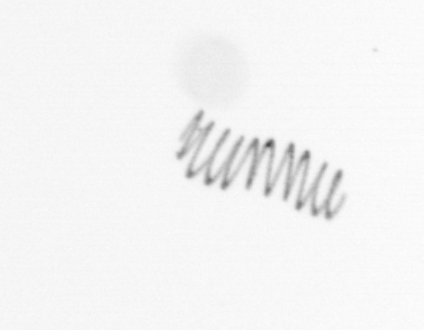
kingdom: Chromista
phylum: Ochrophyta
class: Bacillariophyceae
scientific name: Bacillariophyceae
